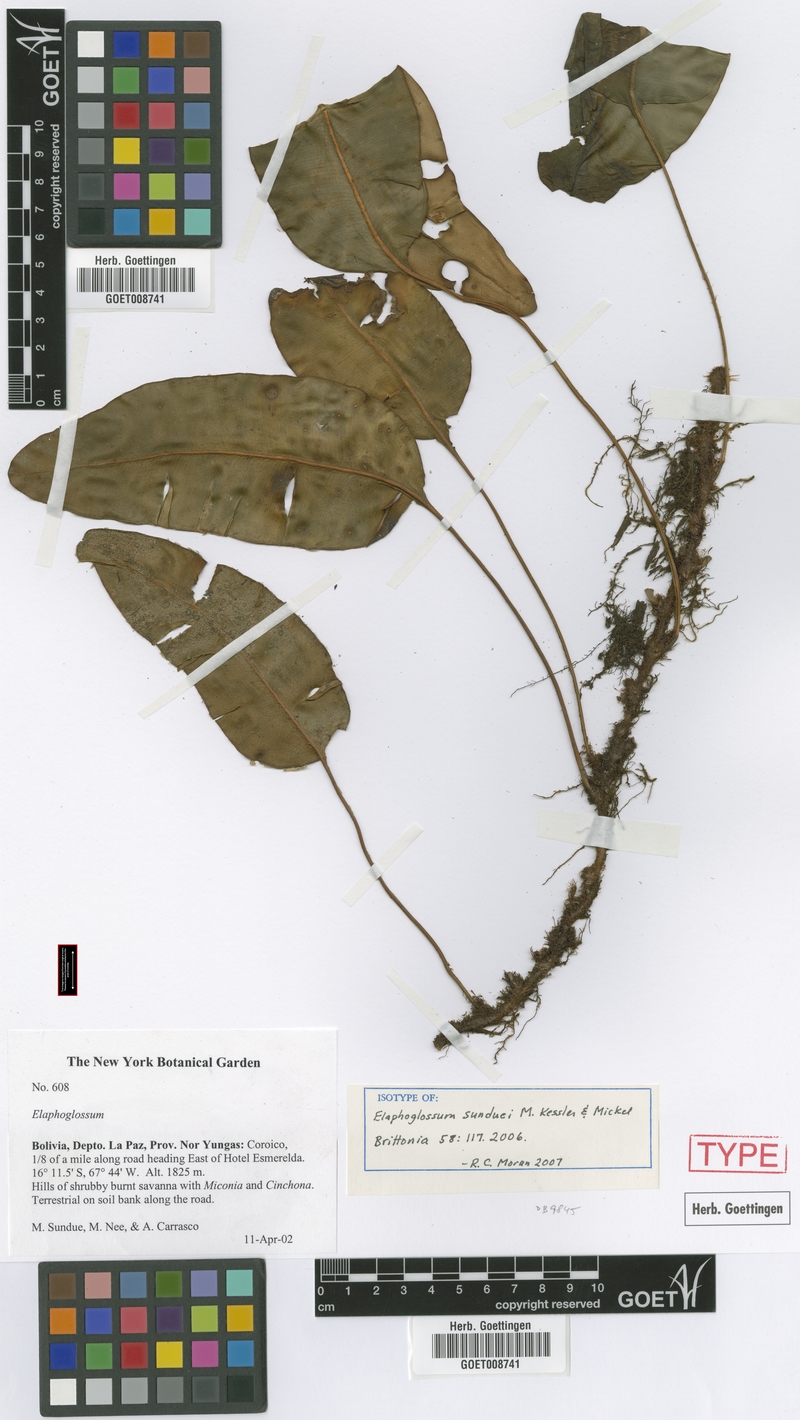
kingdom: Plantae
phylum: Tracheophyta
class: Polypodiopsida
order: Polypodiales
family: Dryopteridaceae
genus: Elaphoglossum
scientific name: Elaphoglossum sunduei
